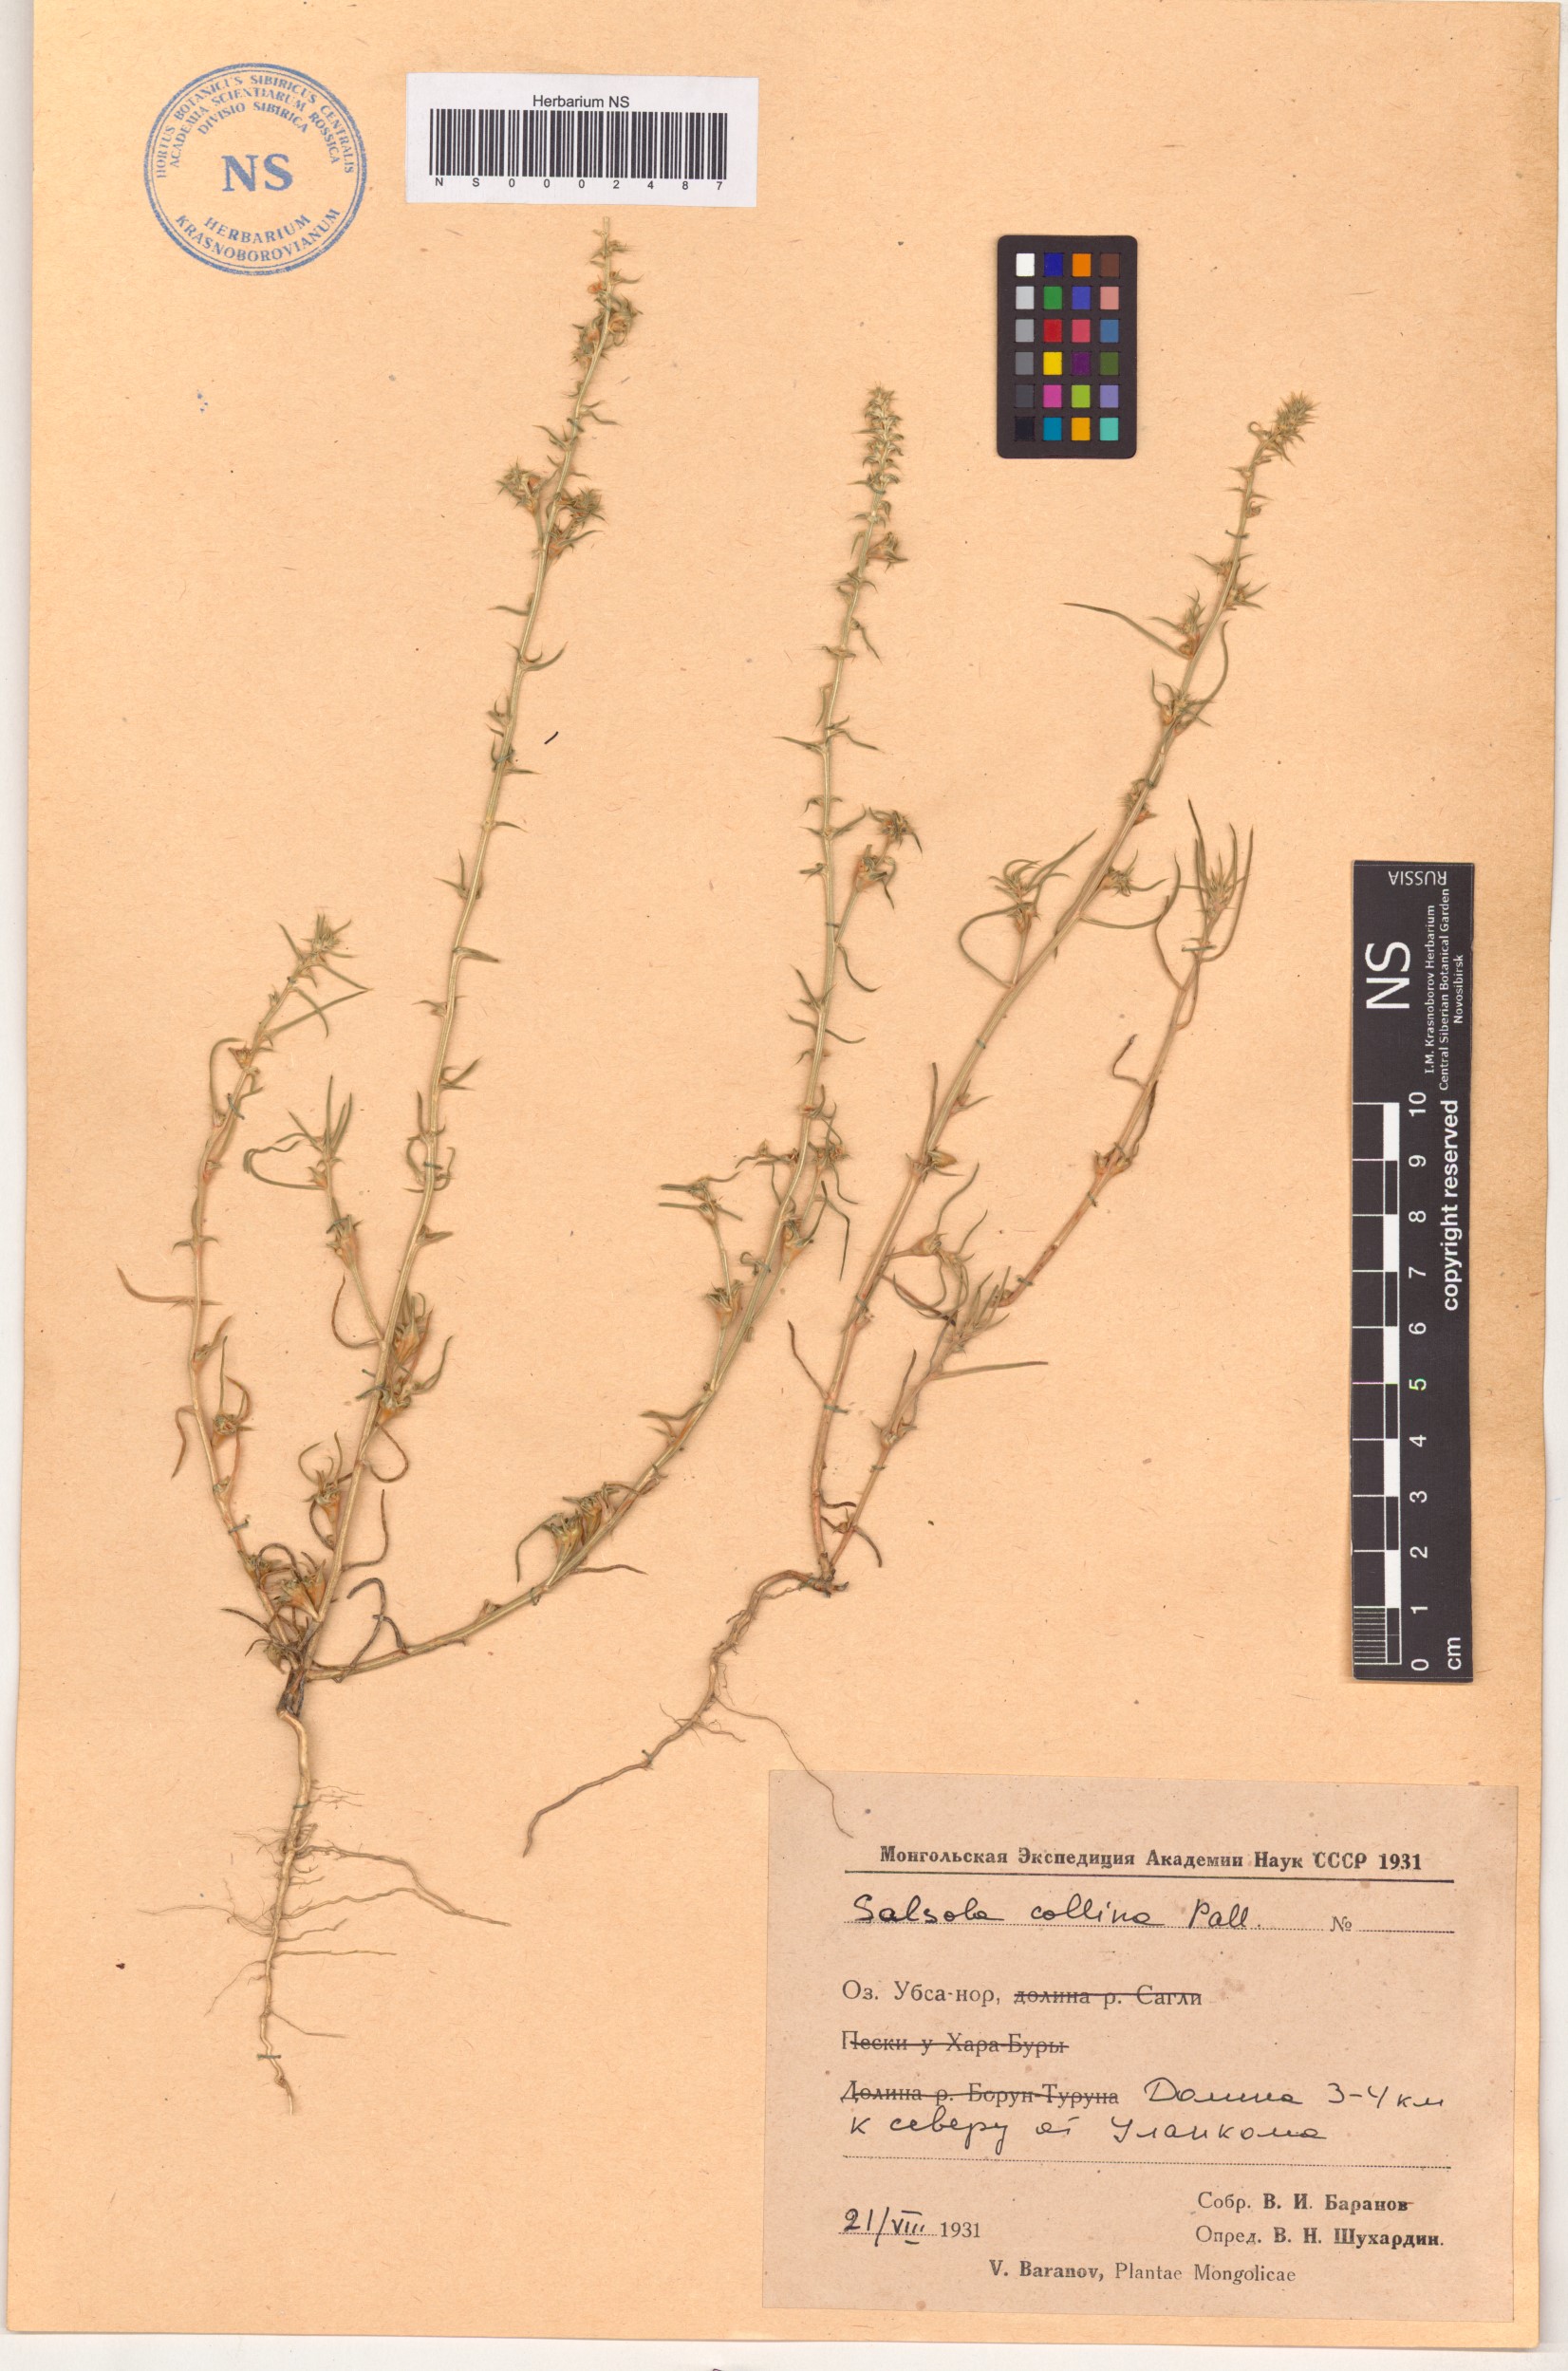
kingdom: Plantae
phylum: Tracheophyta
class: Magnoliopsida
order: Caryophyllales
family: Amaranthaceae
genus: Salsola
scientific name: Salsola collina
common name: Tumbleweed
